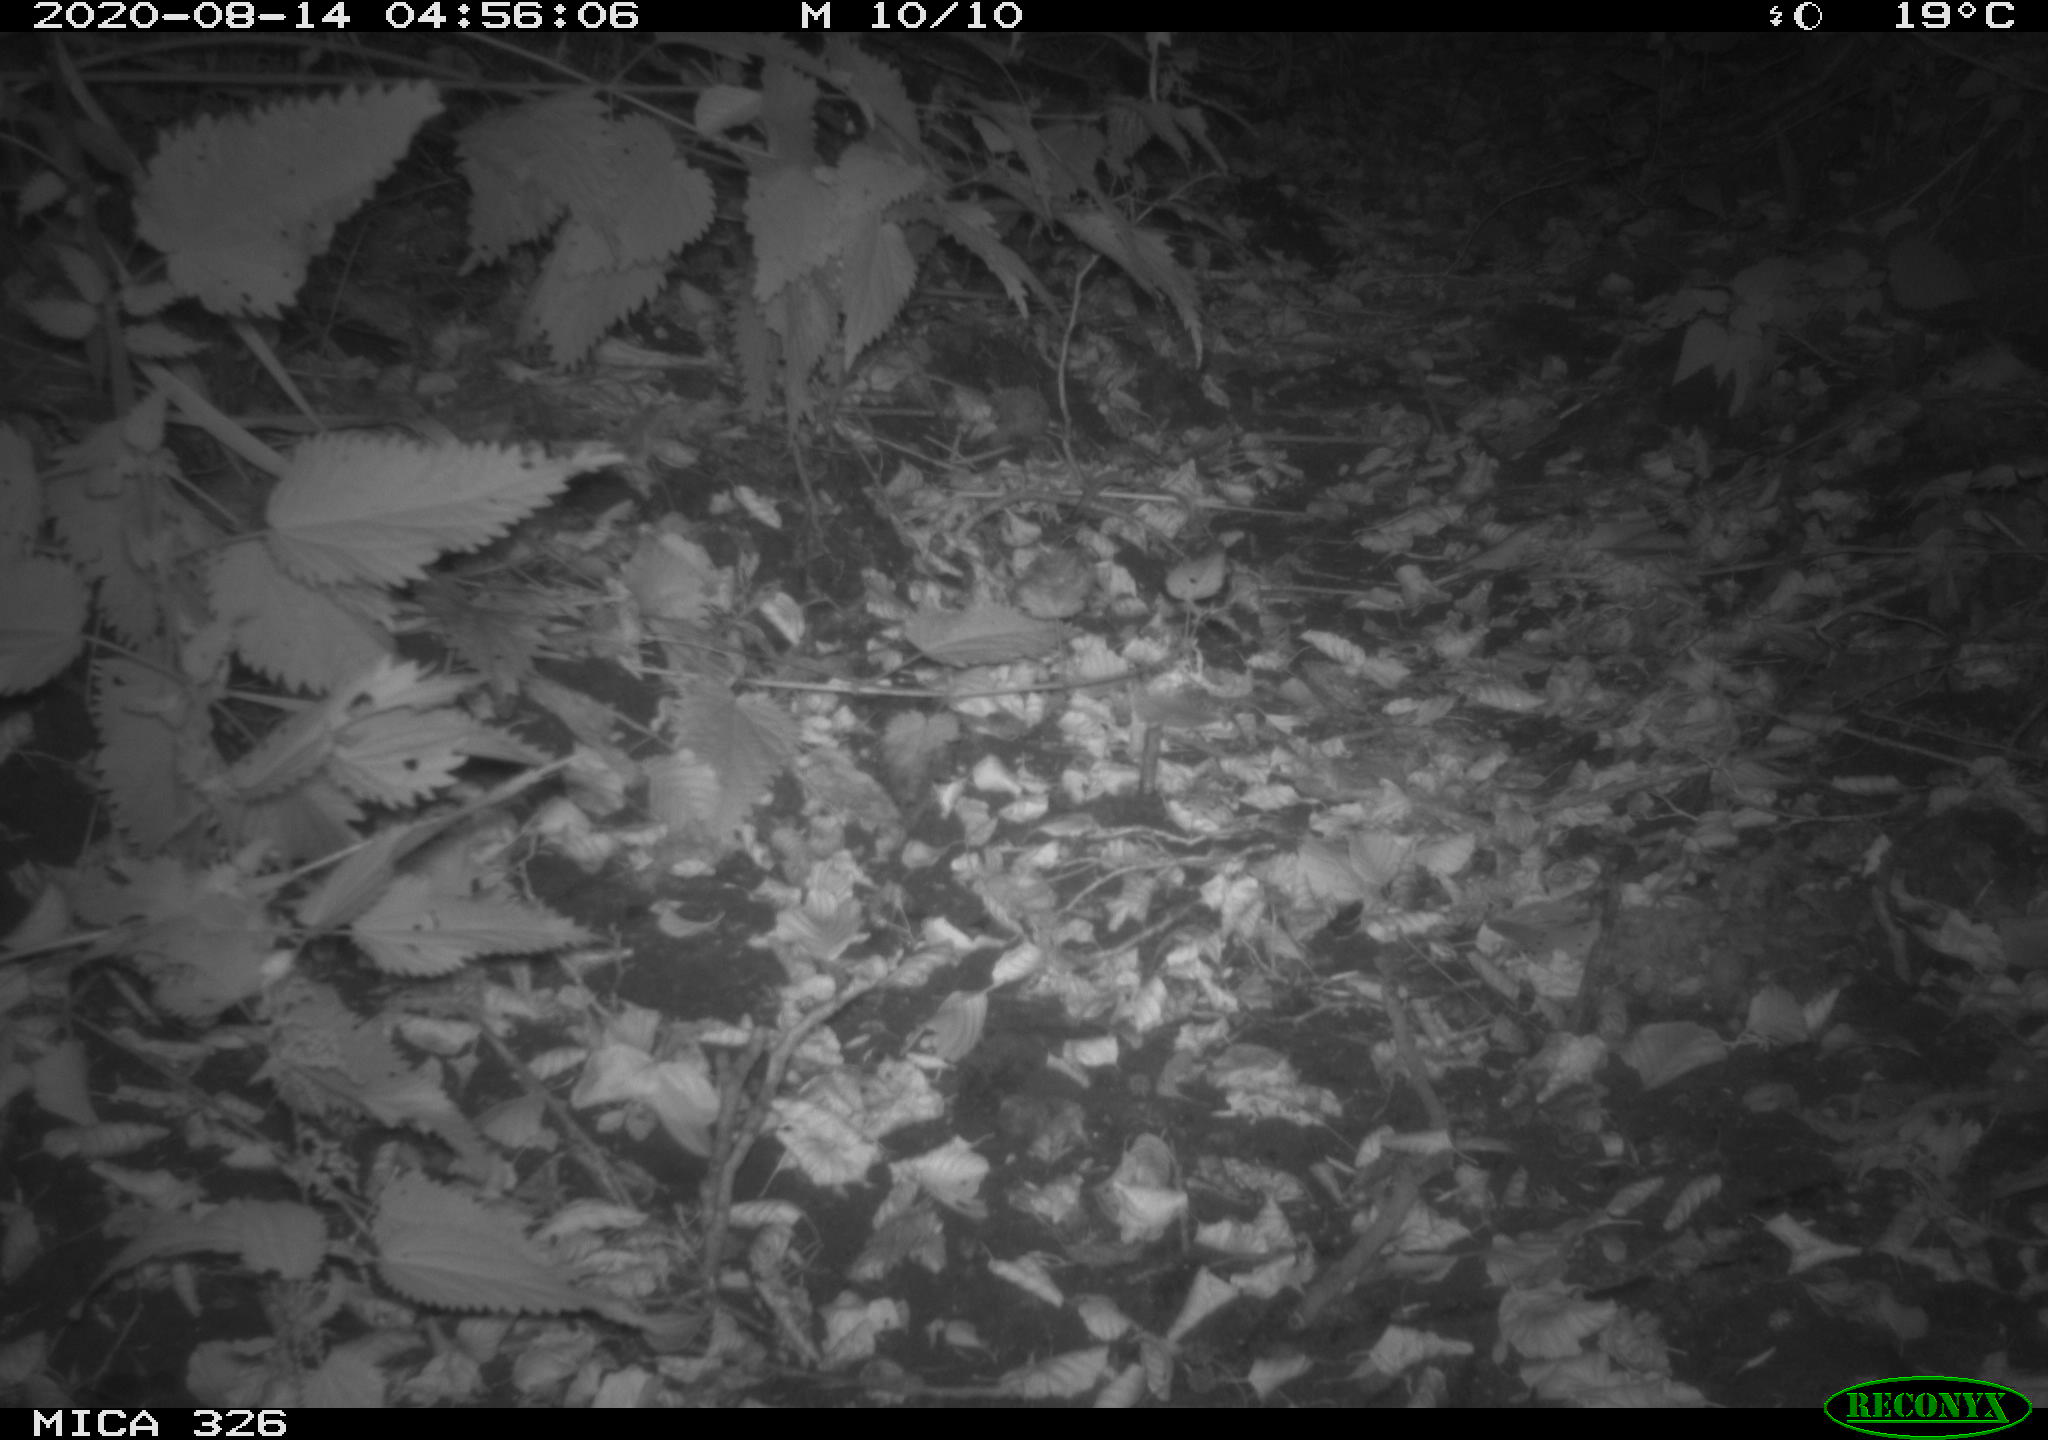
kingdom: Animalia
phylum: Chordata
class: Mammalia
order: Rodentia
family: Muridae
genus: Rattus
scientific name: Rattus norvegicus
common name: Brown rat
